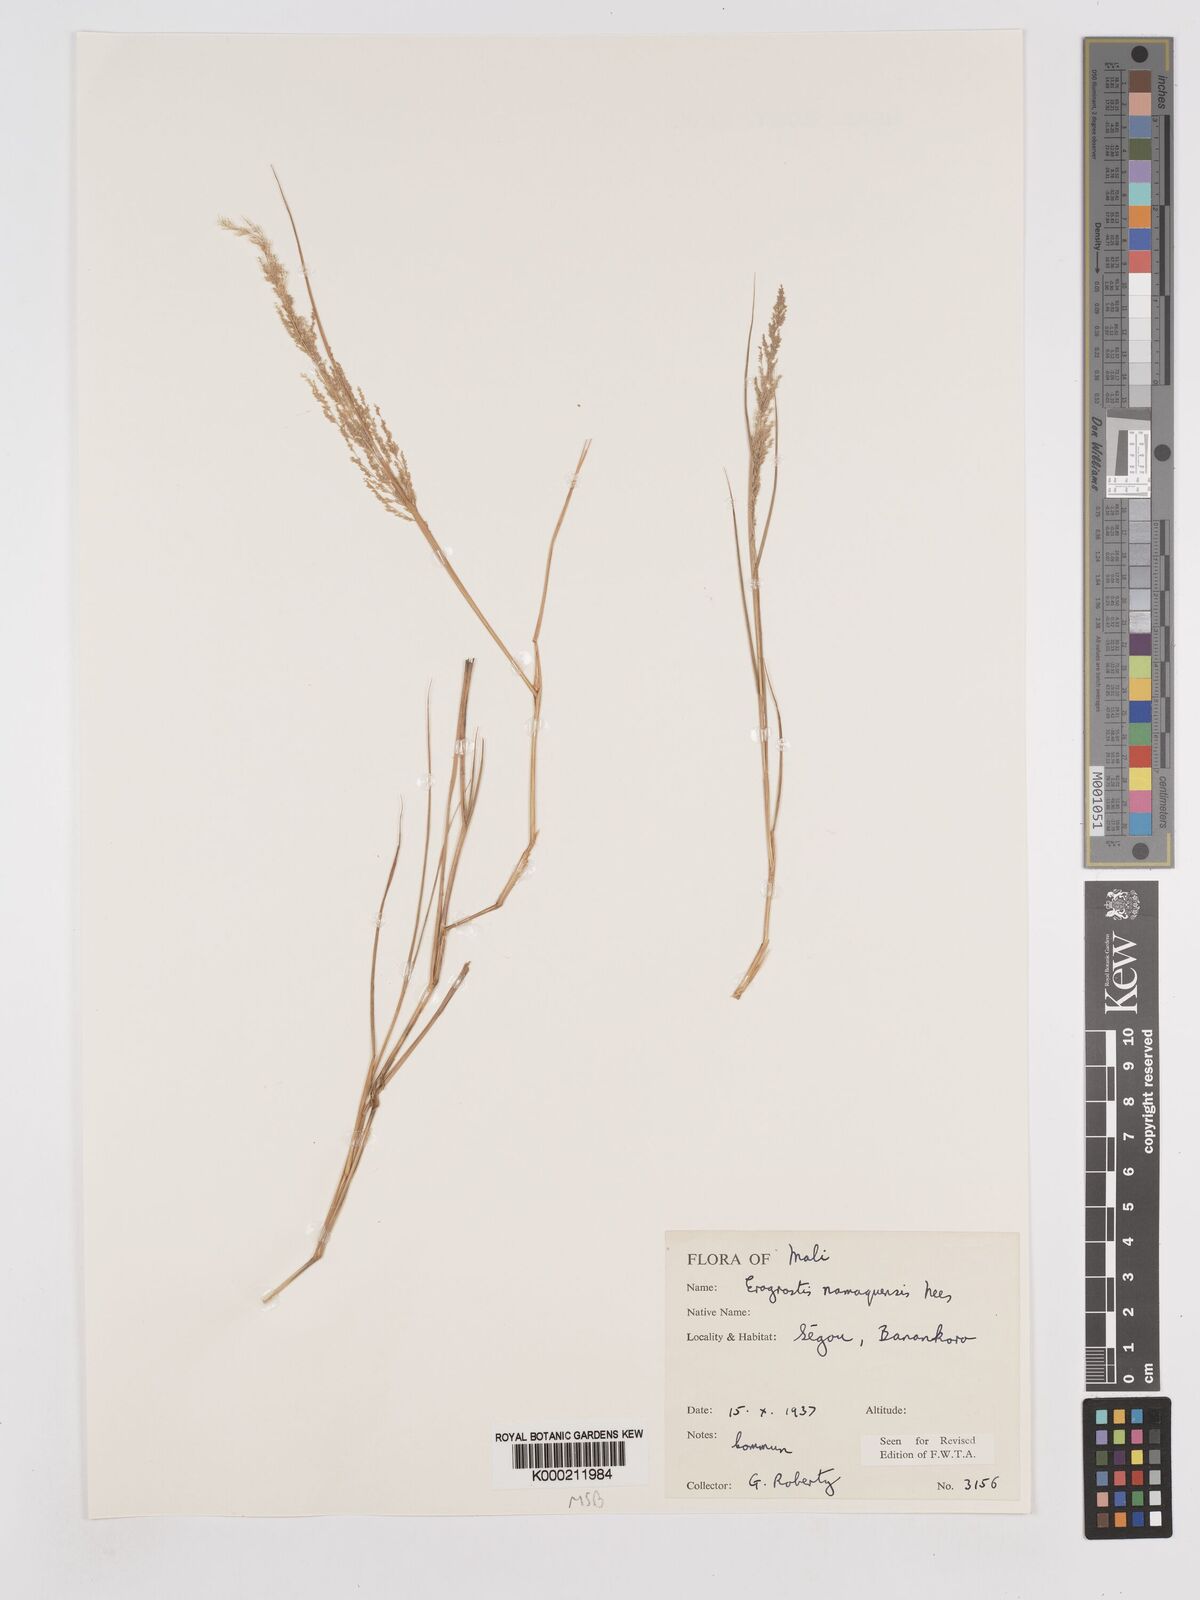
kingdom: Plantae
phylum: Tracheophyta
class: Liliopsida
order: Poales
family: Poaceae
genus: Eragrostis
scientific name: Eragrostis japonica
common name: Pond lovegrass
